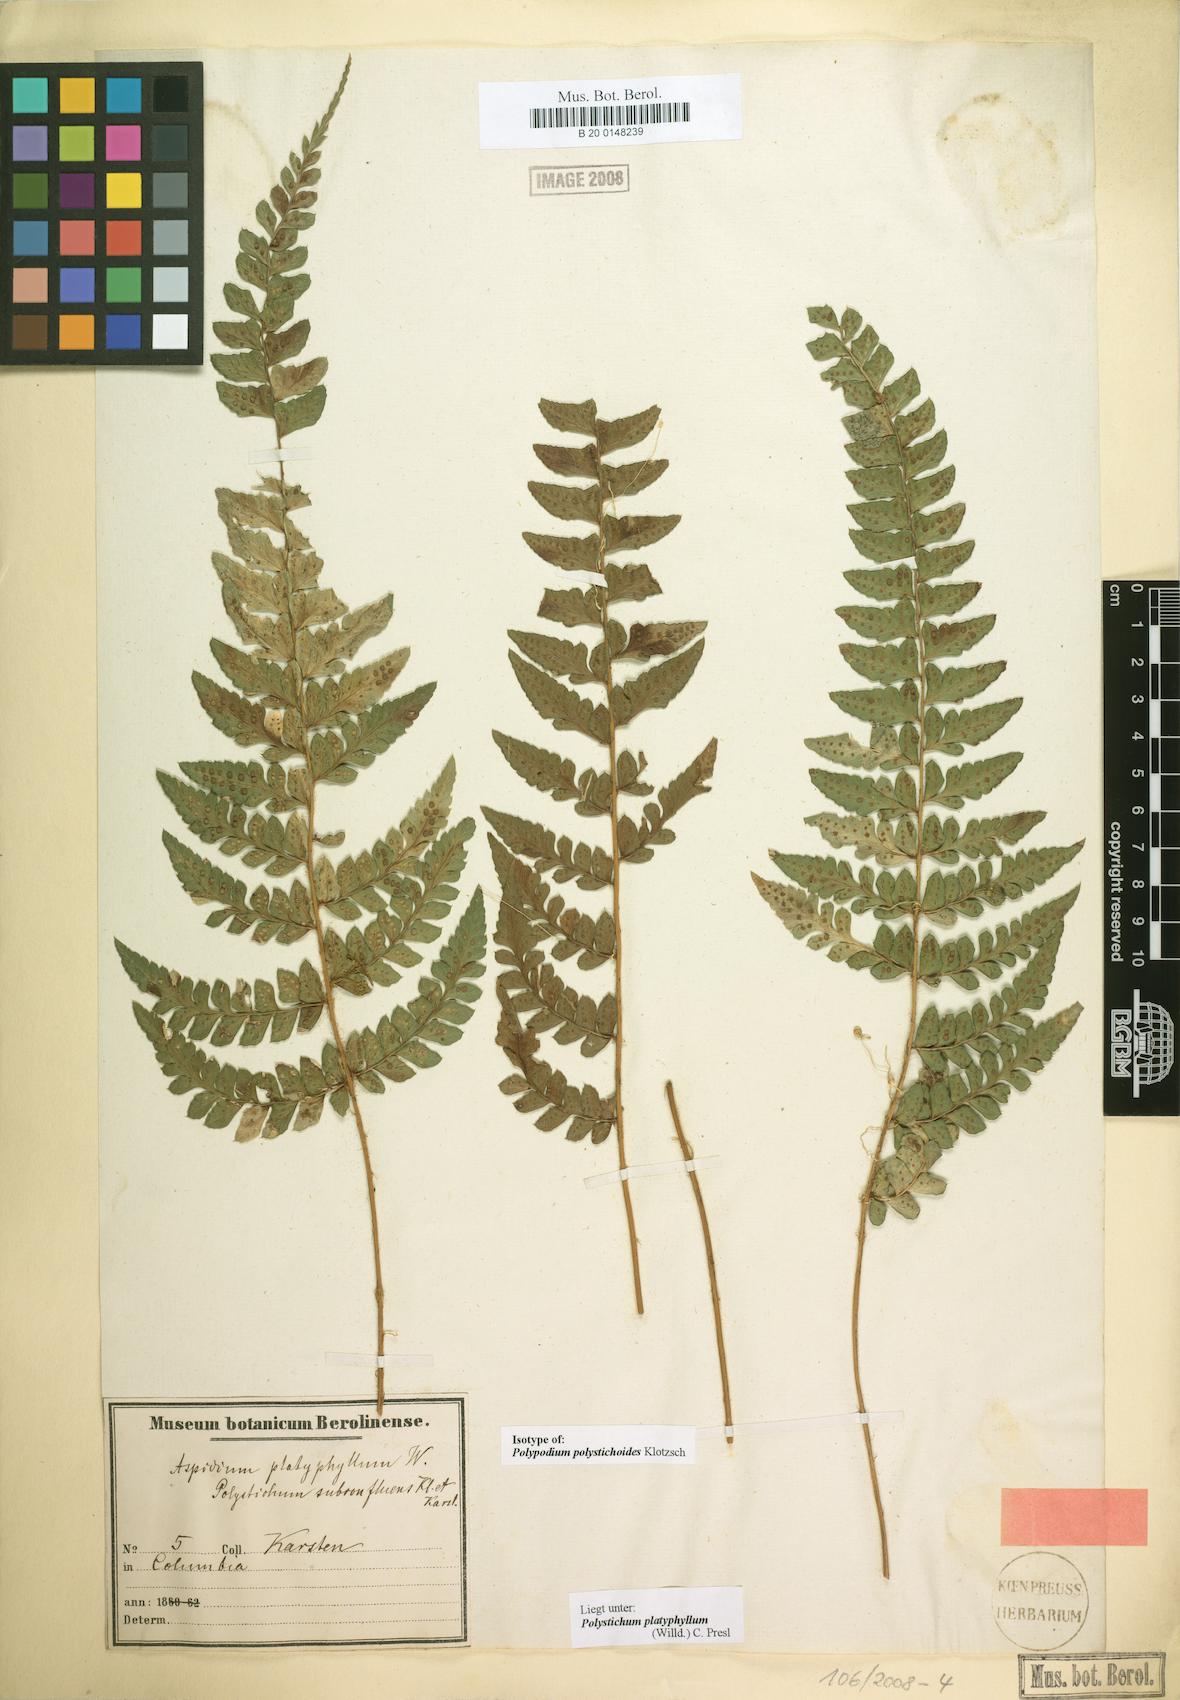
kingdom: Plantae
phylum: Tracheophyta
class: Polypodiopsida
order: Polypodiales
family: Dryopteridaceae
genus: Polystichum
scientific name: Polystichum platyphyllum
